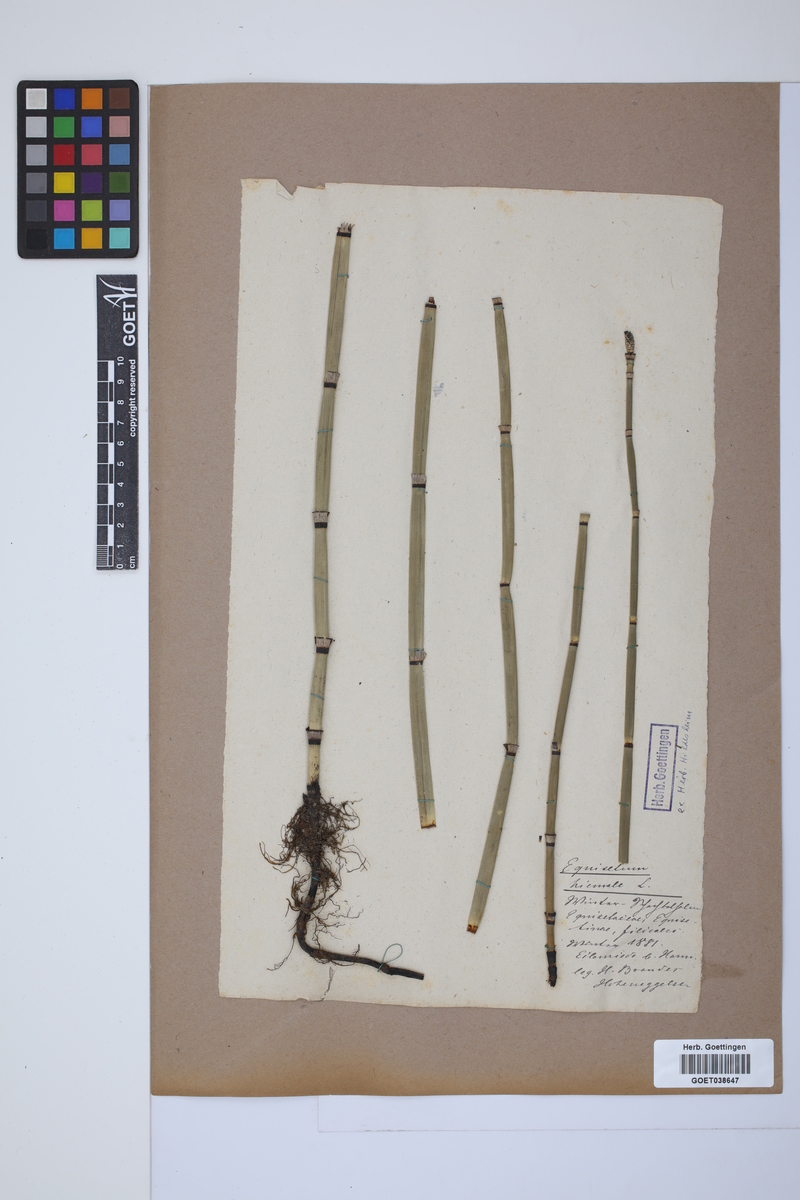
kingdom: Plantae
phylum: Tracheophyta
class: Polypodiopsida
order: Equisetales
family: Equisetaceae
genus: Equisetum
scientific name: Equisetum hyemale
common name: Rough horsetail
